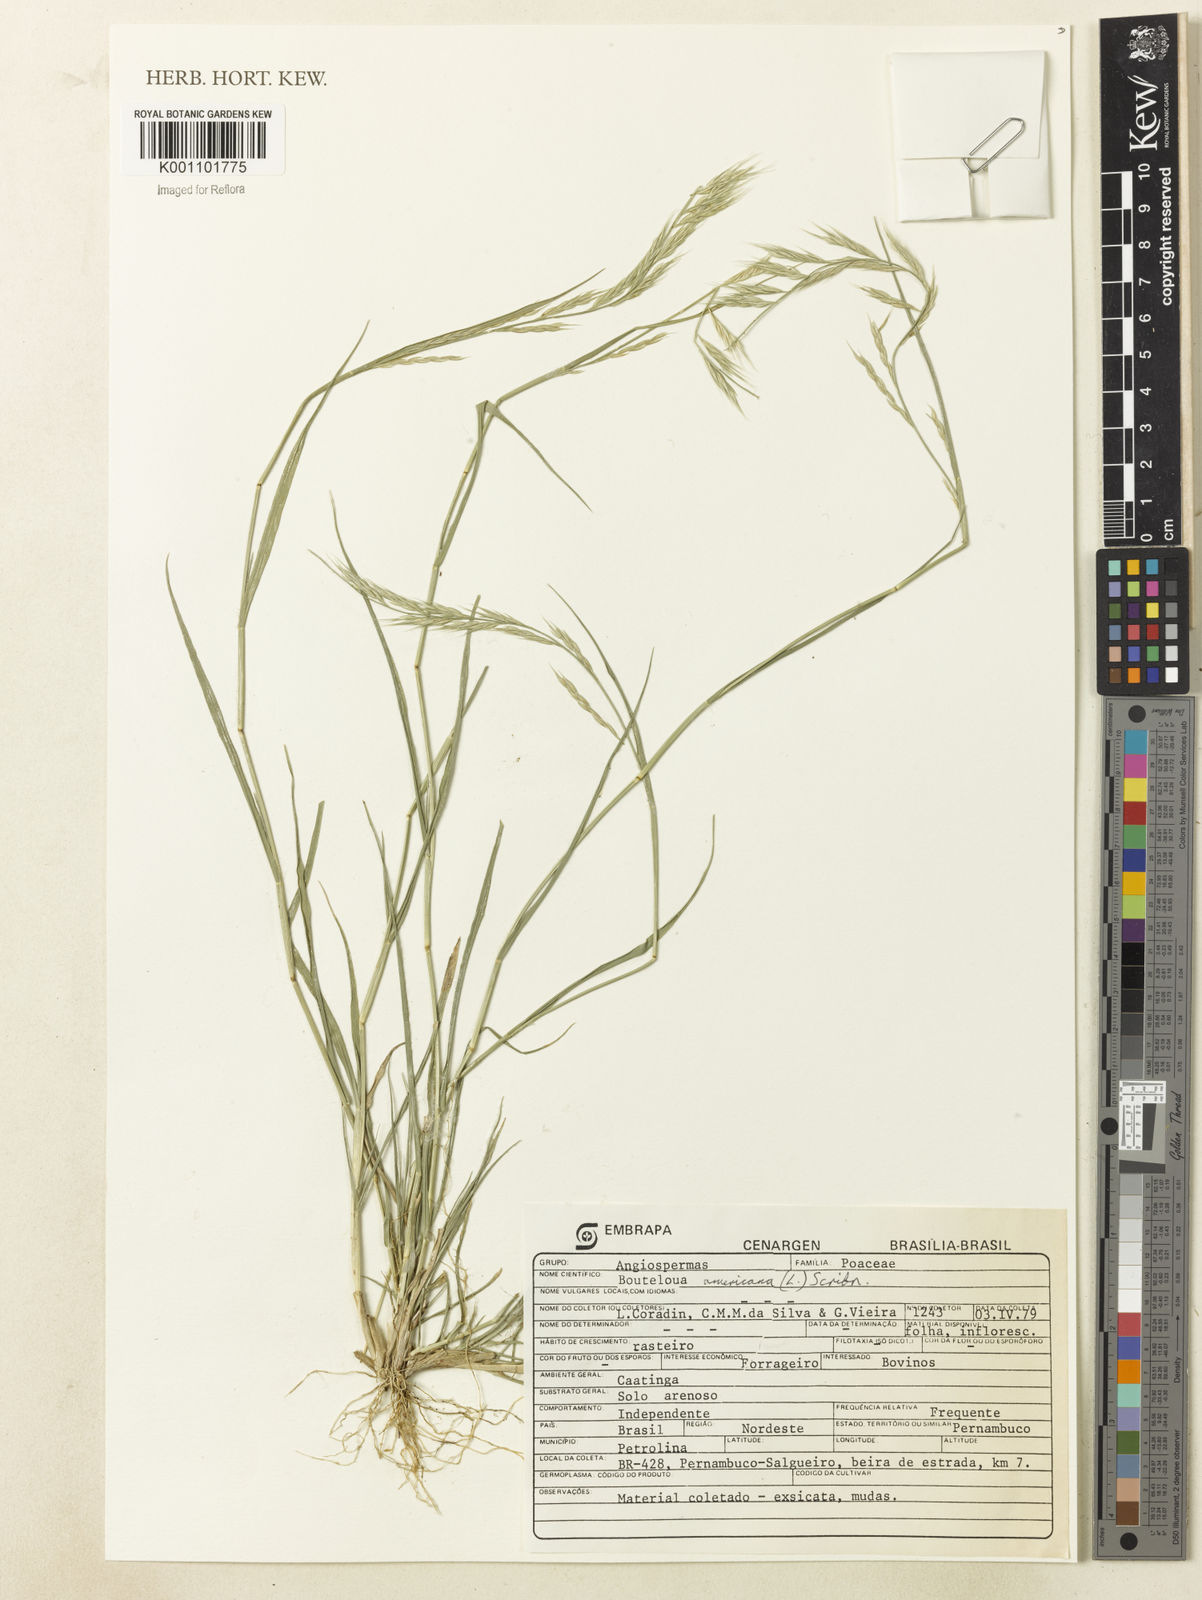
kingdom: Plantae
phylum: Tracheophyta
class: Liliopsida
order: Poales
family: Poaceae
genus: Bouteloua
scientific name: Bouteloua americana
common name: Mule grass
